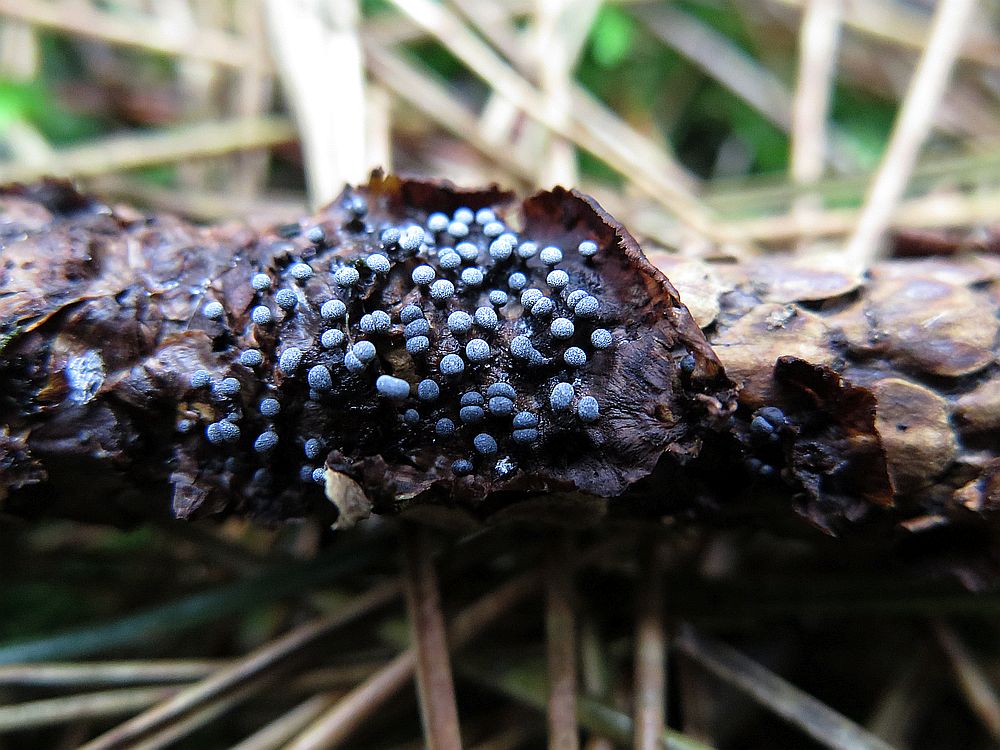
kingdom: Protozoa
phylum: Mycetozoa
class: Myxomycetes
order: Physarales
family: Physaraceae
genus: Physarum
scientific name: Physarum leucophaeum
